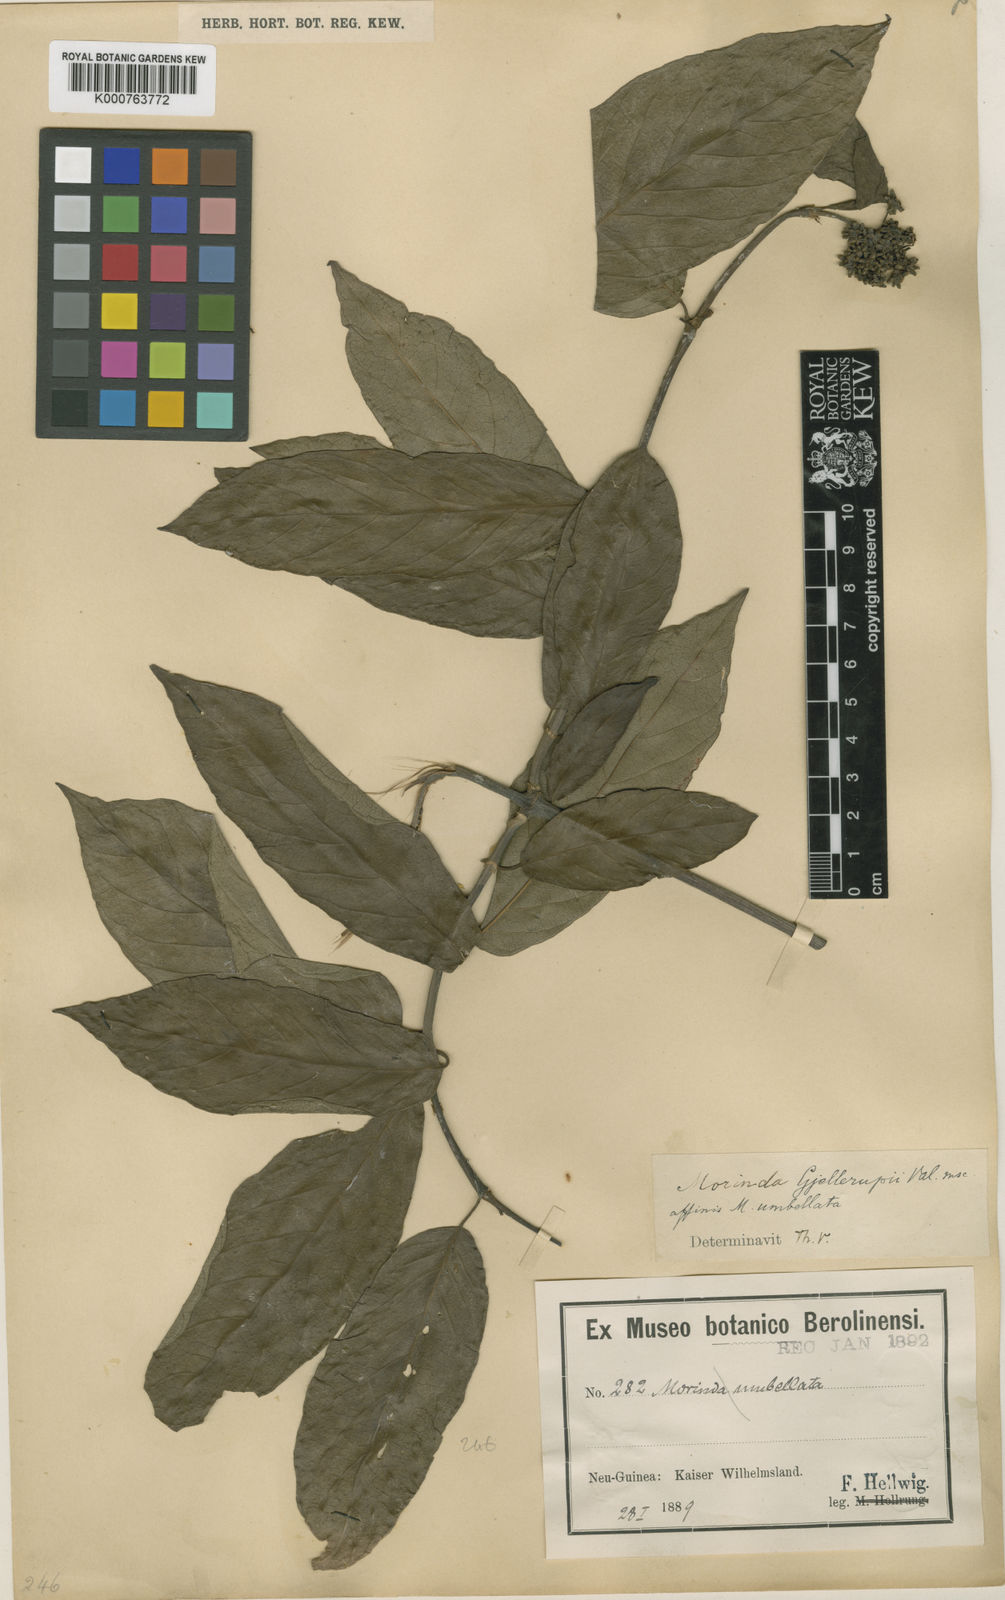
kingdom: Plantae
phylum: Tracheophyta
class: Magnoliopsida
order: Gentianales
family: Rubiaceae
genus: Gynochthodes
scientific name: Gynochthodes gjellerupii
